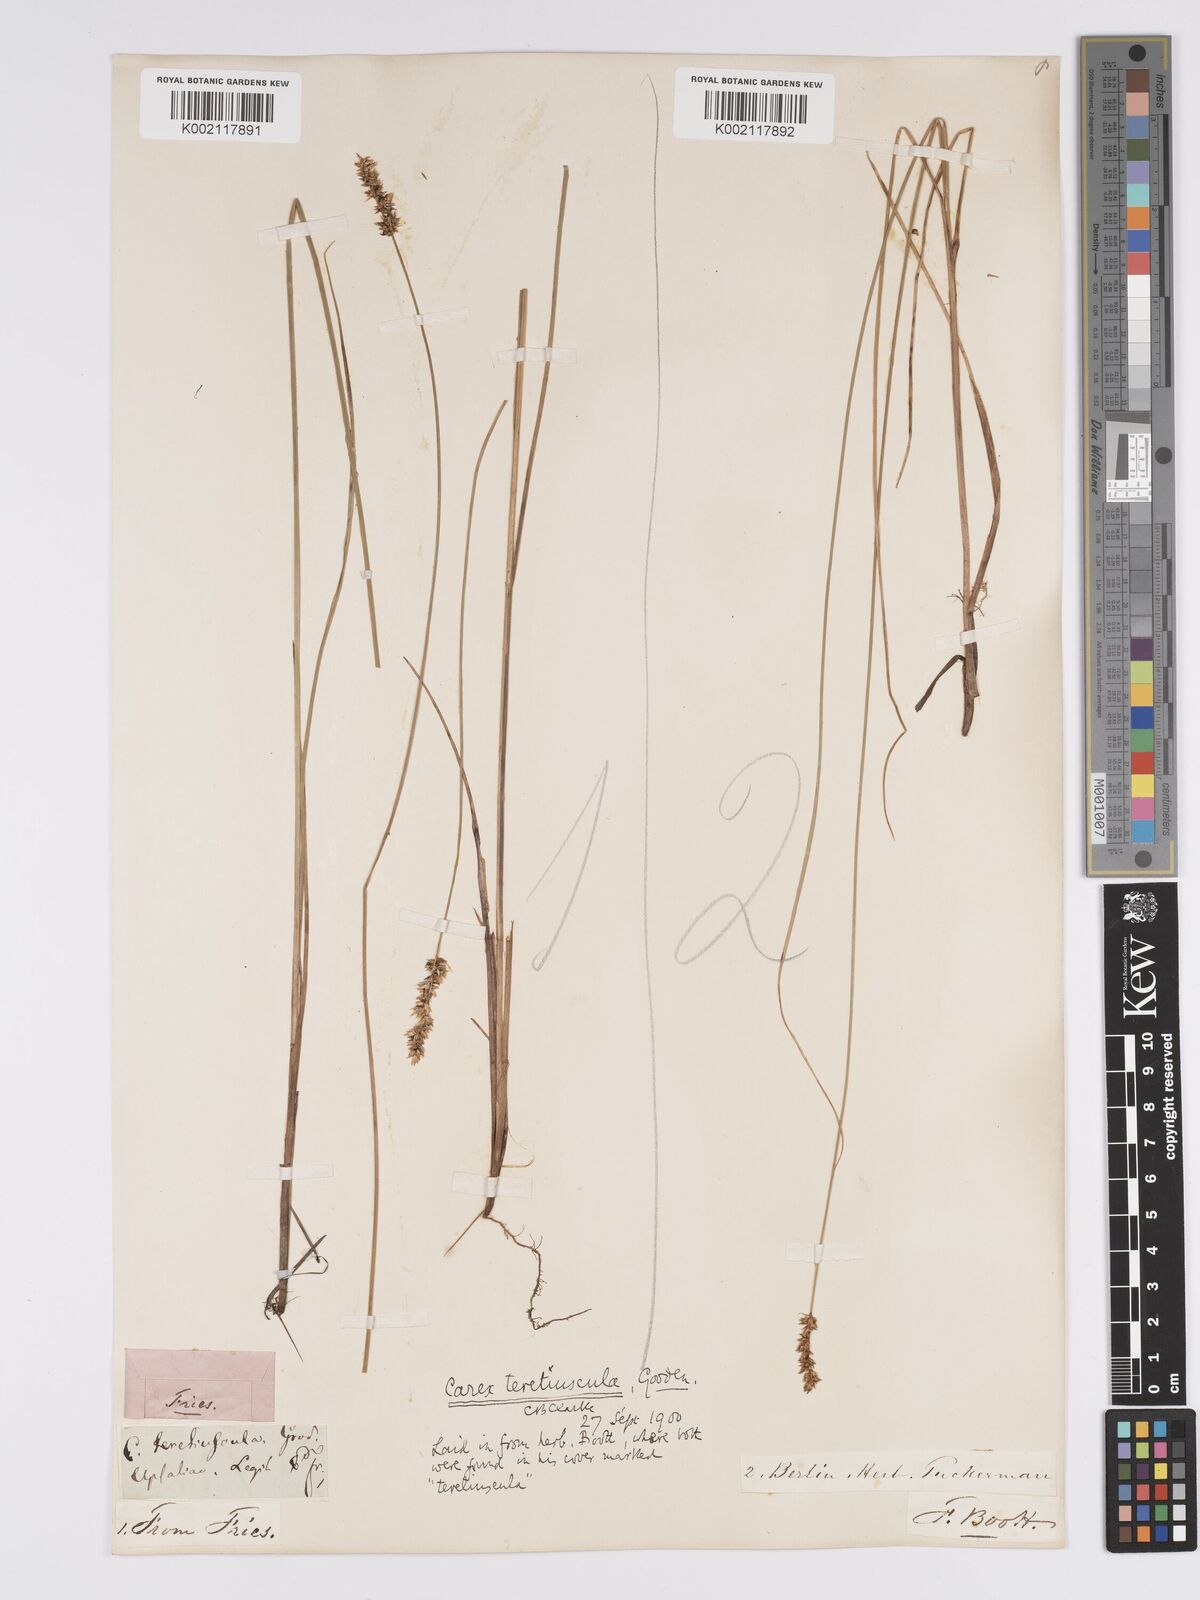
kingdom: Plantae
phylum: Tracheophyta
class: Liliopsida
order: Poales
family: Cyperaceae
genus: Carex
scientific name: Carex diandra
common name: Lesser tussock-sedge
